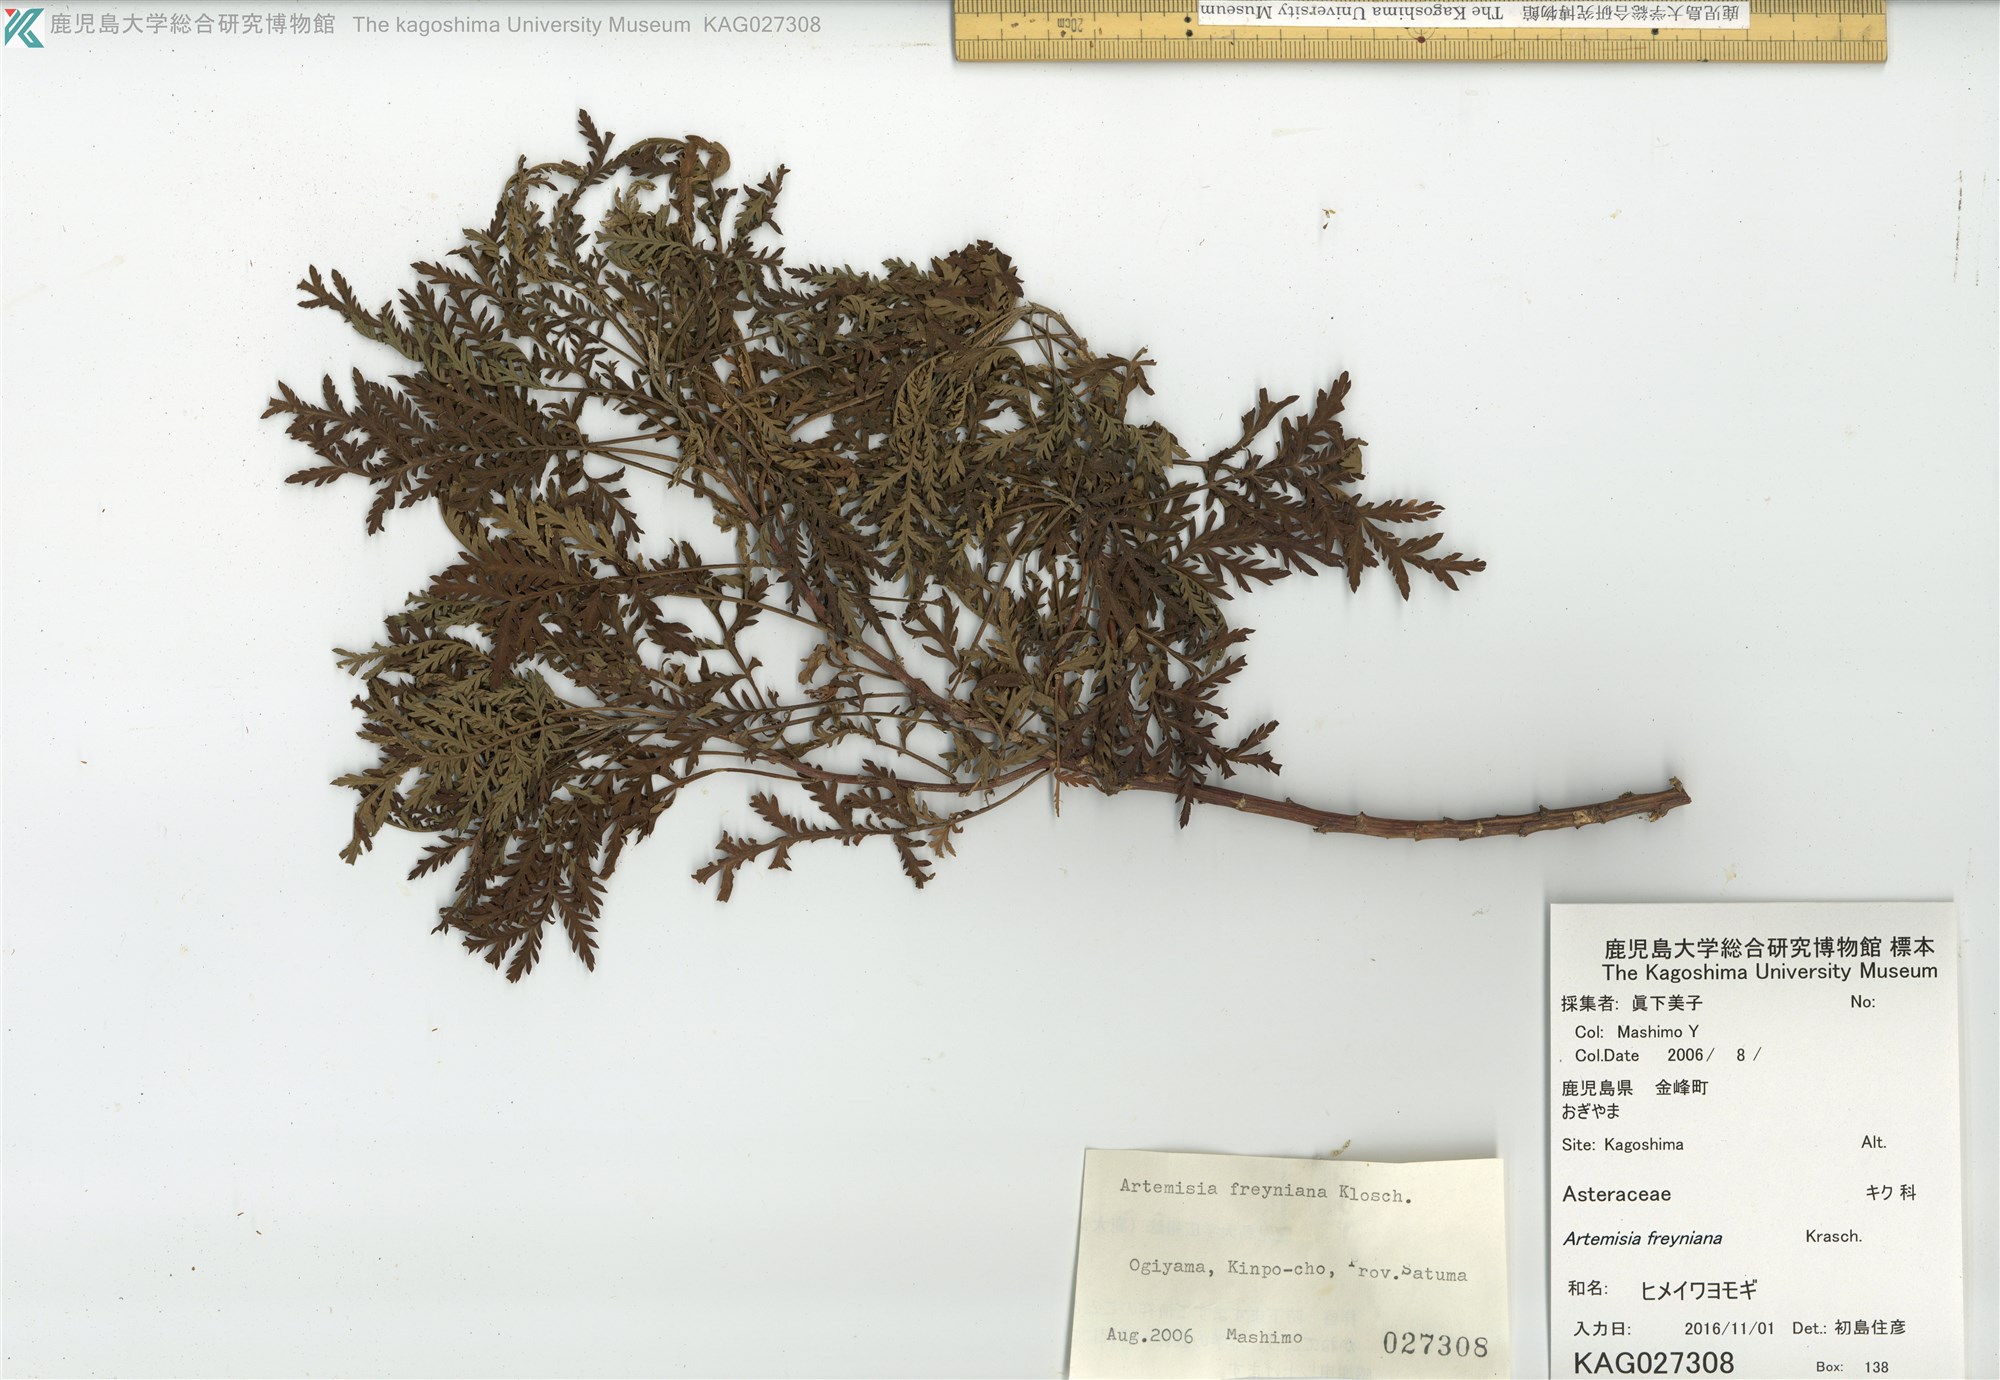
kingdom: Plantae
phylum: Tracheophyta
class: Magnoliopsida
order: Asterales
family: Asteraceae
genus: Artemisia
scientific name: Artemisia freyniana
